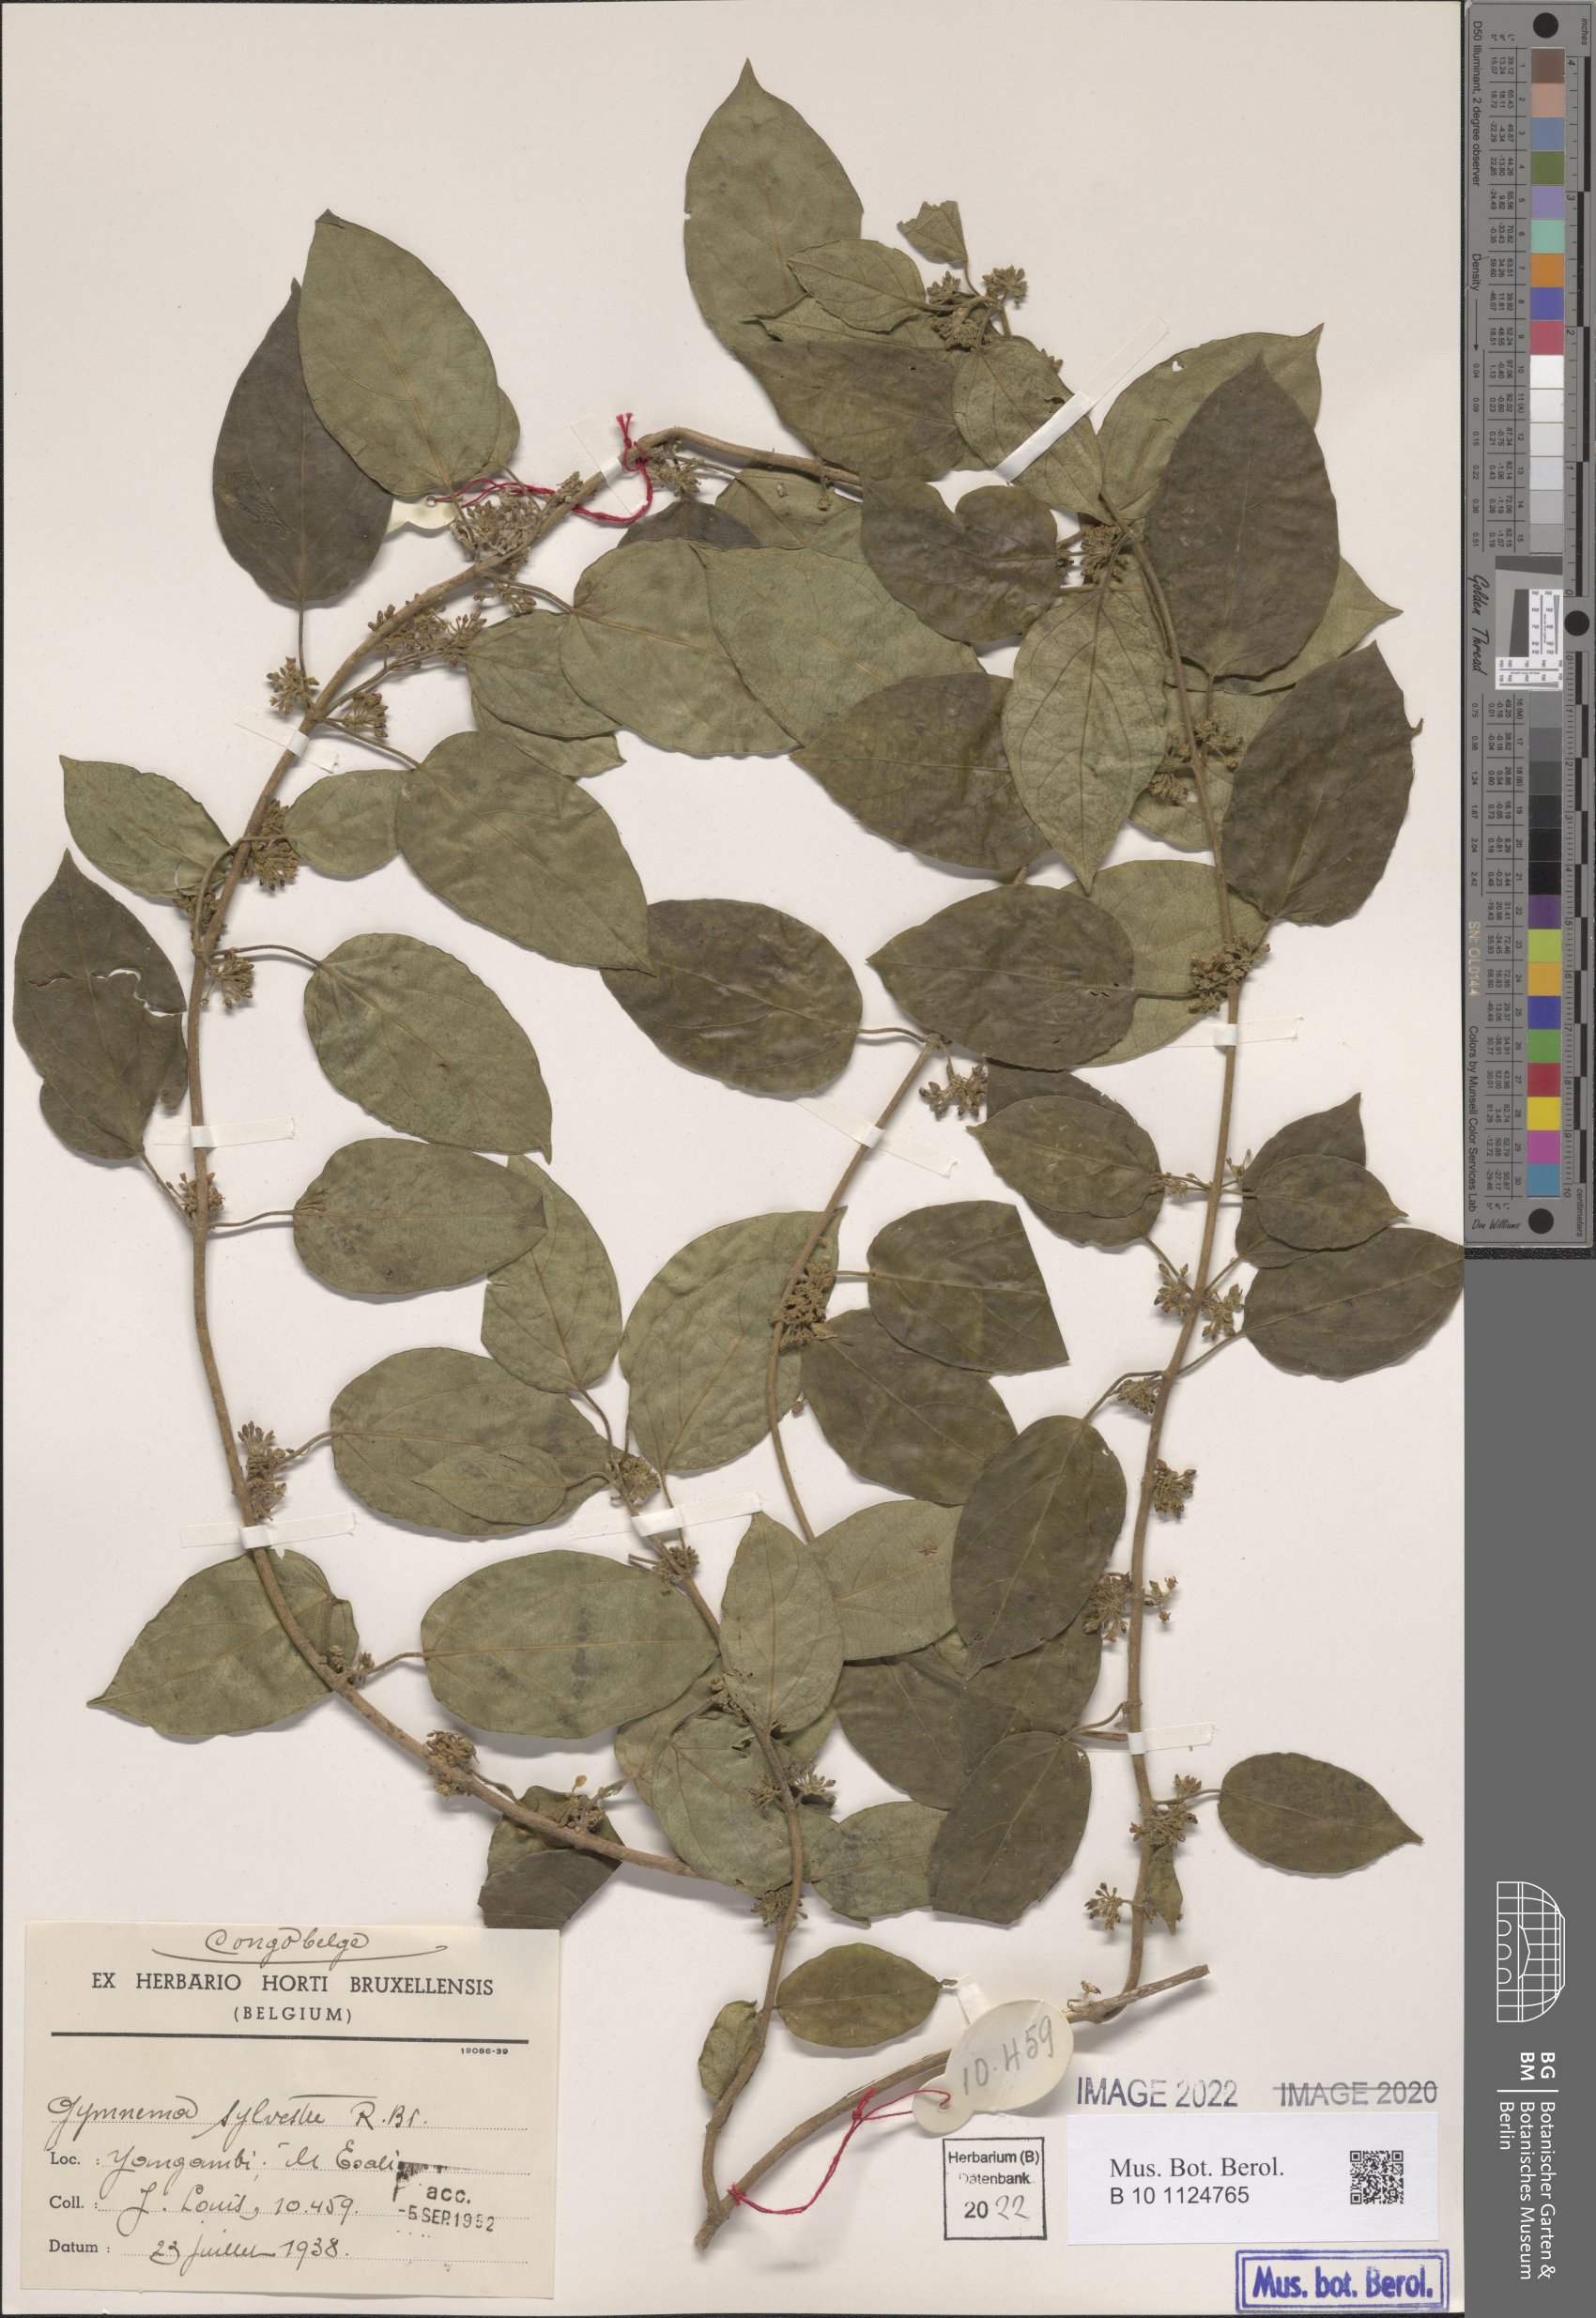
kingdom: Plantae
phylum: Tracheophyta
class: Magnoliopsida
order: Gentianales
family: Apocynaceae
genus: Gymnema
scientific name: Gymnema sylvestre
